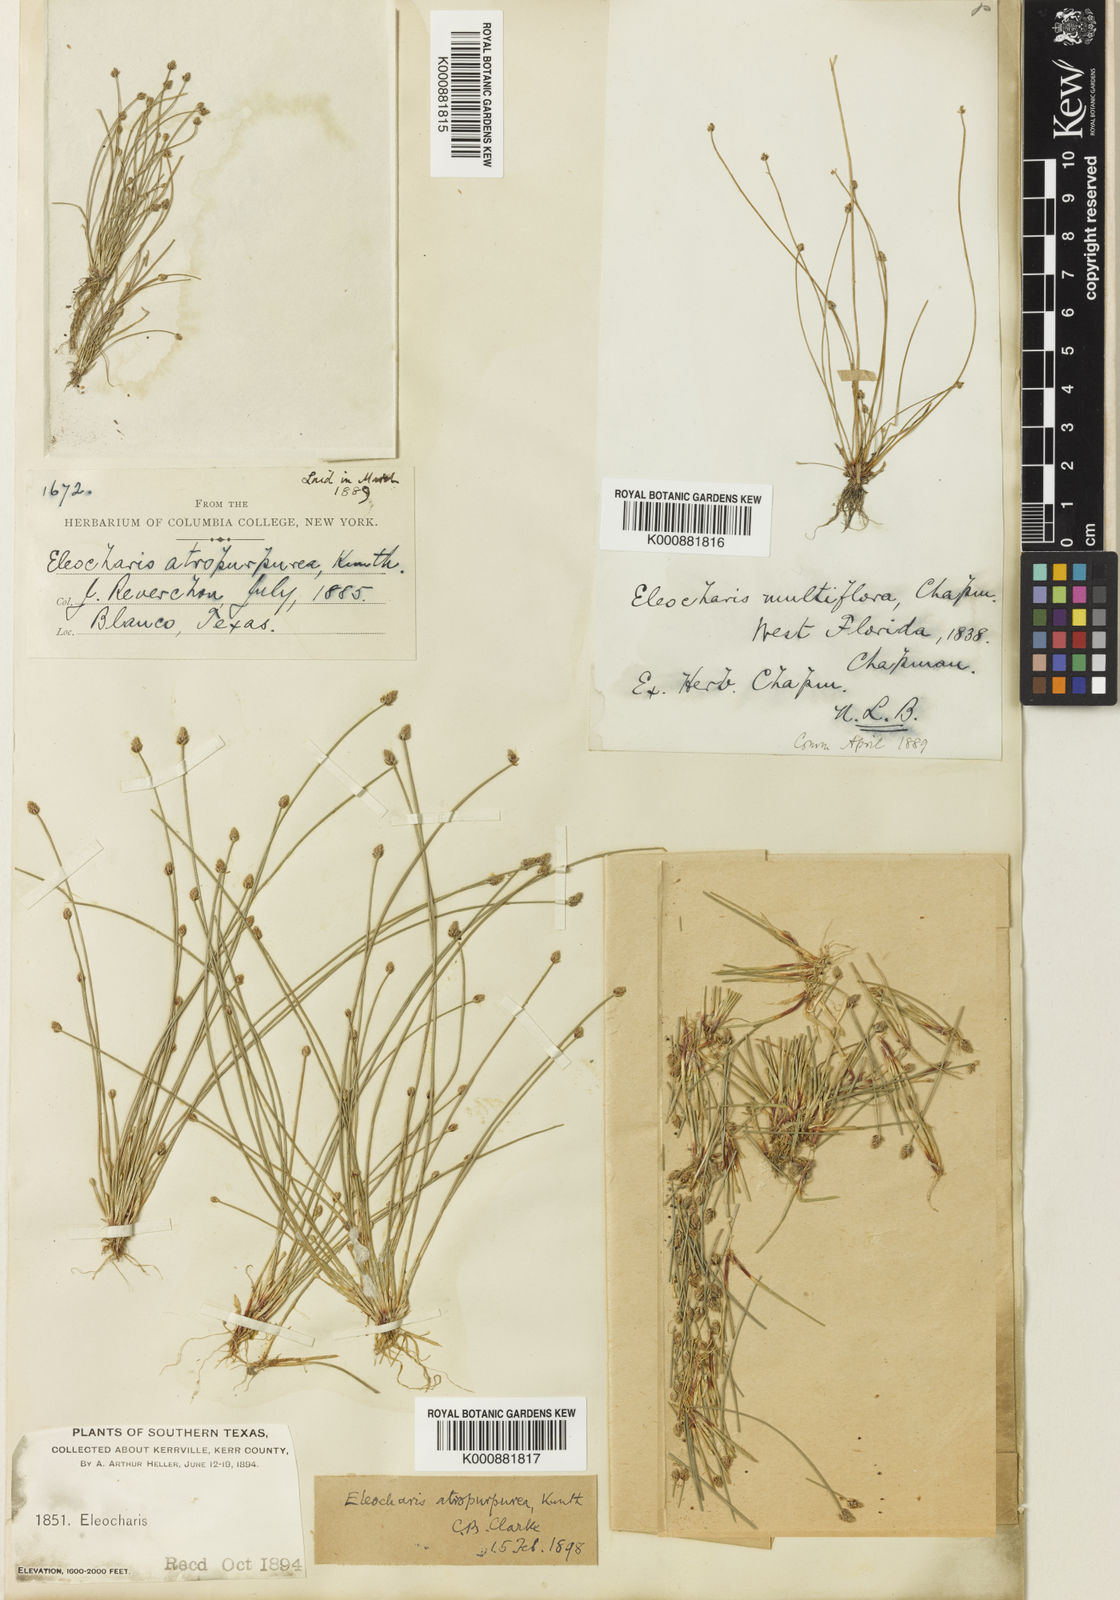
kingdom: Plantae
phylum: Tracheophyta
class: Liliopsida
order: Poales
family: Cyperaceae
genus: Eleocharis
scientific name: Eleocharis
